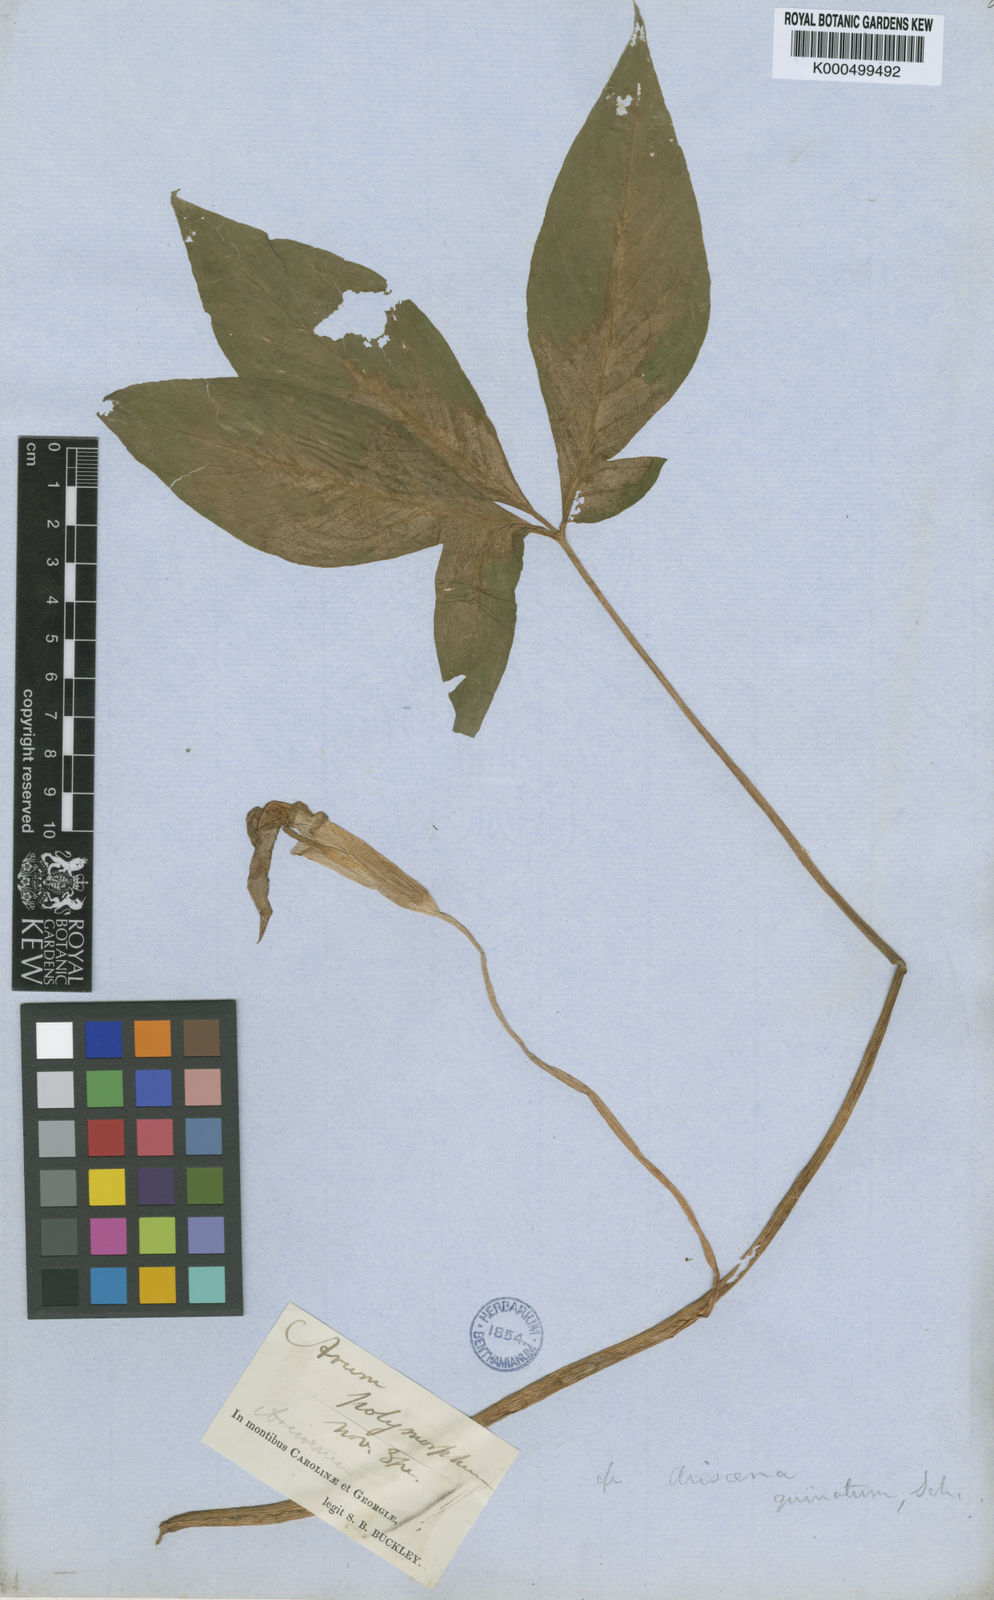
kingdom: Plantae
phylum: Tracheophyta
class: Liliopsida
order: Alismatales
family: Araceae
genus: Arum
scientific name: Arum orientale
